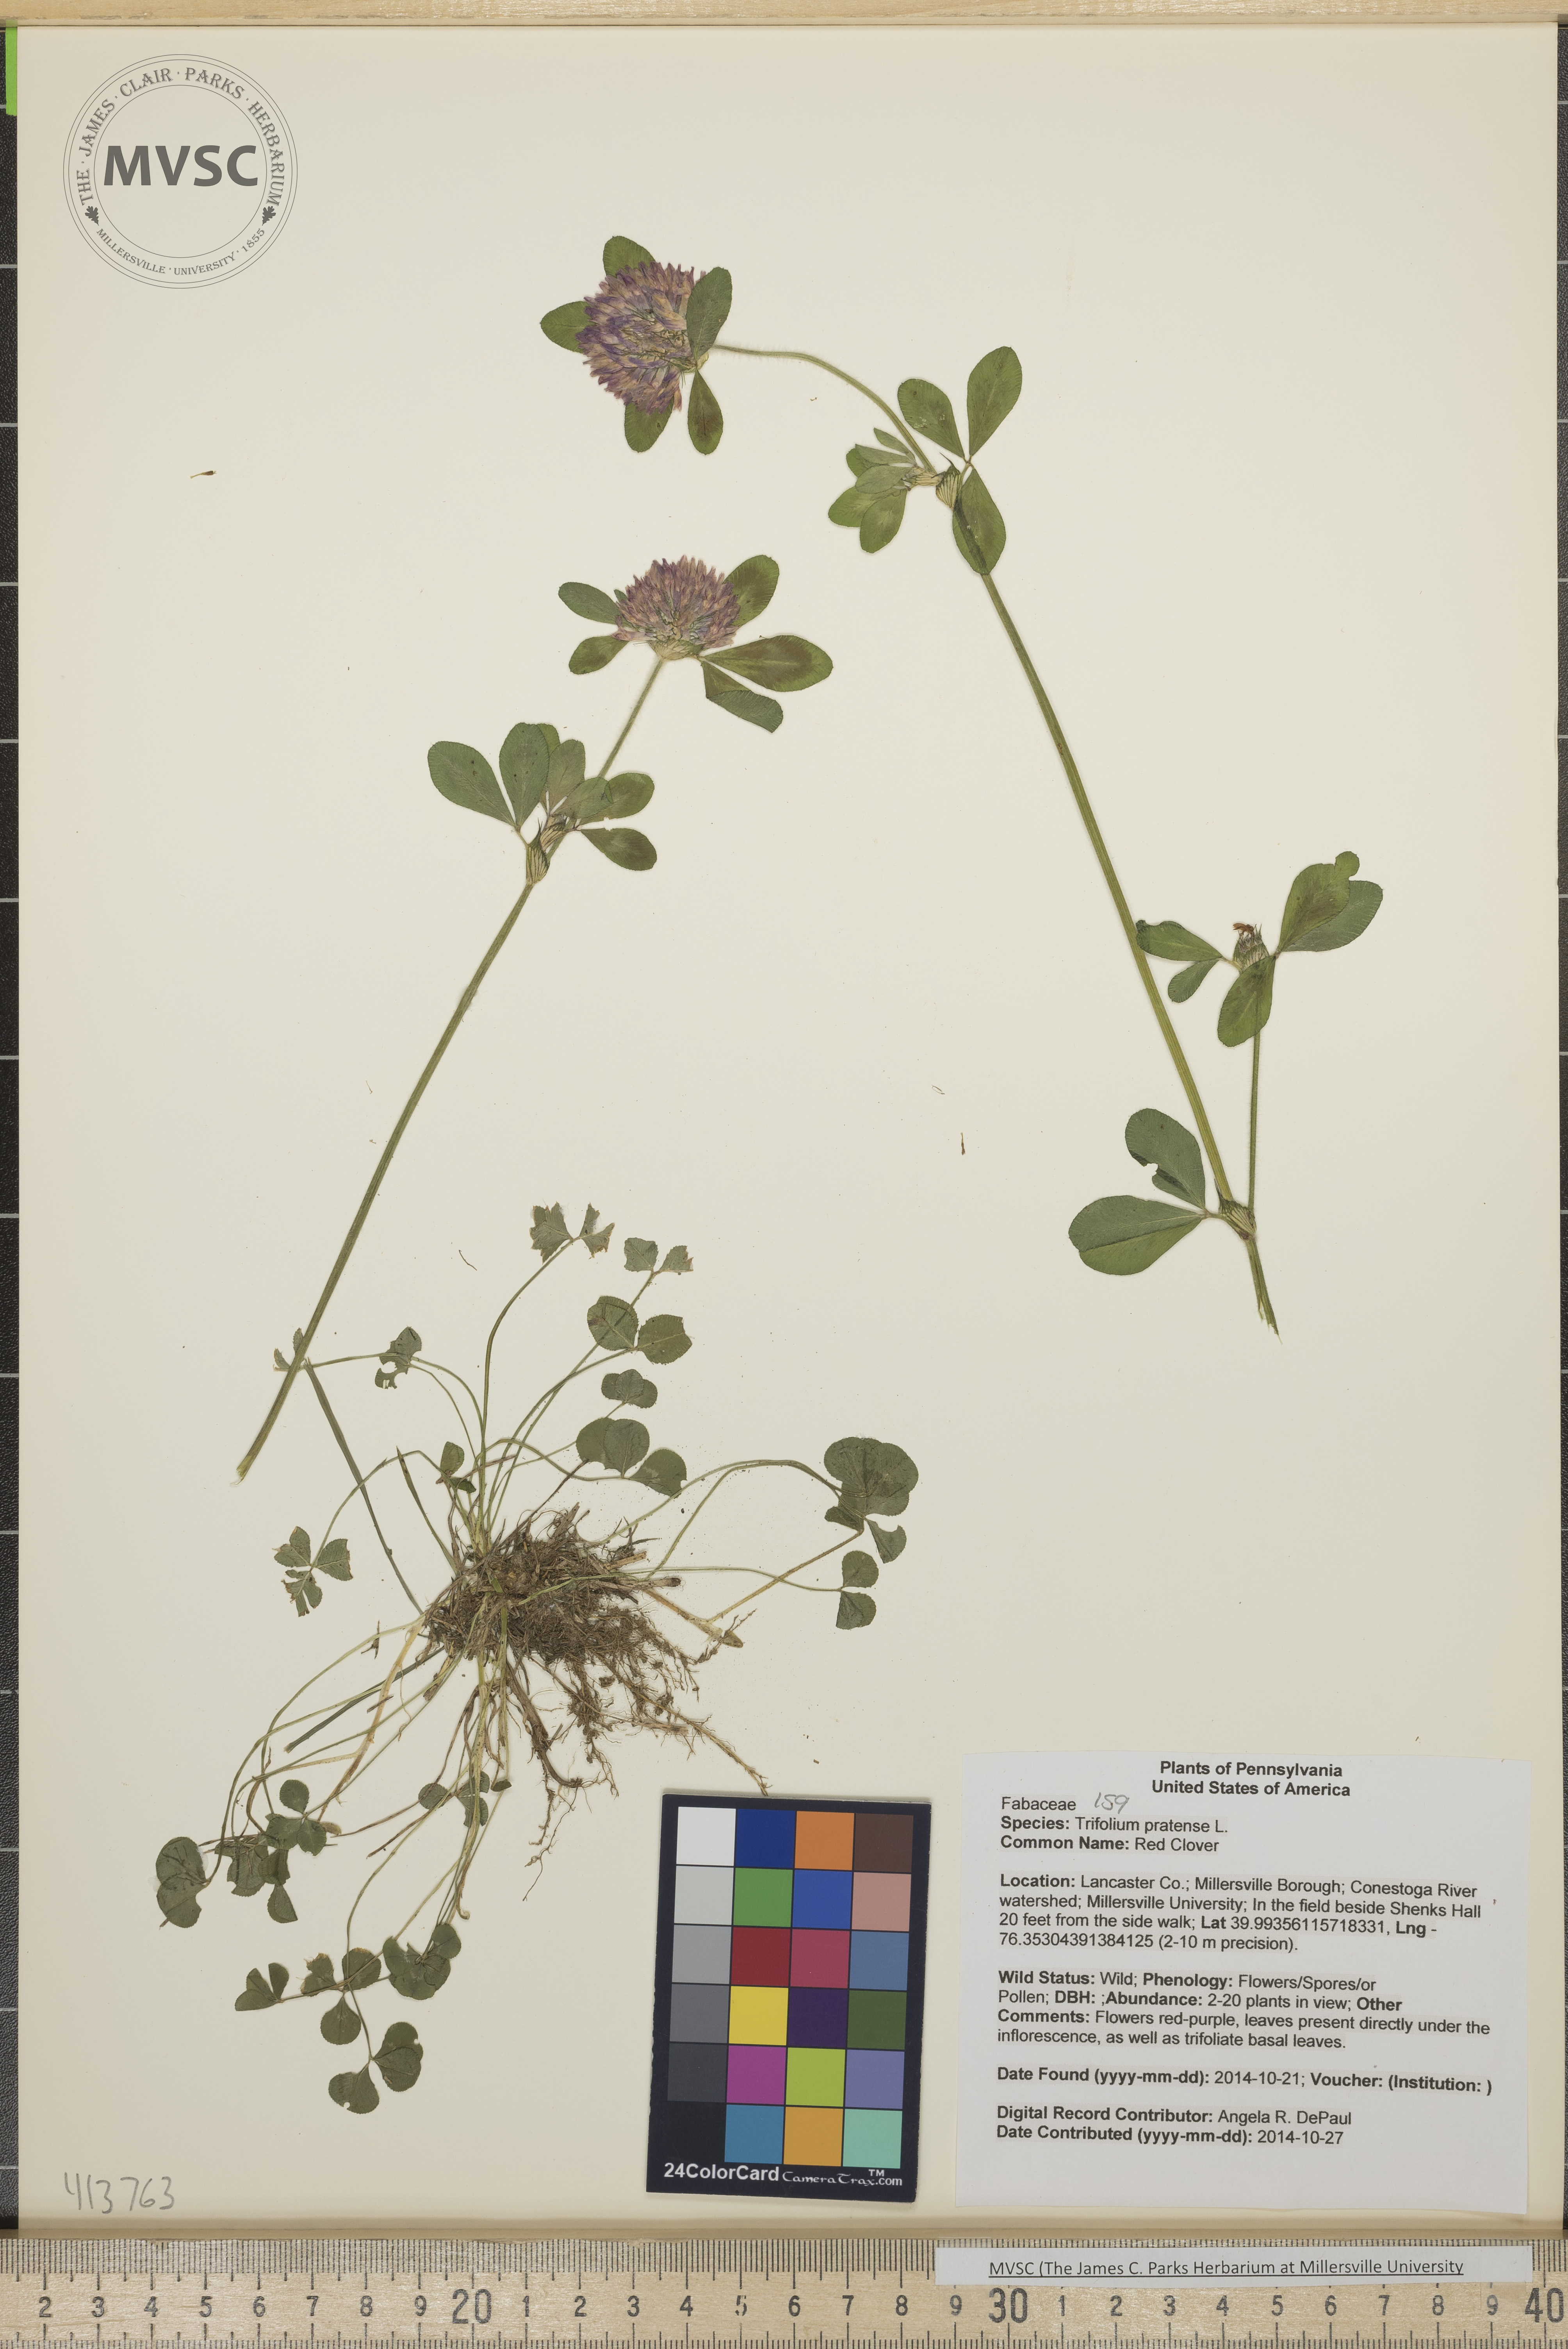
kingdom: Plantae
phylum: Tracheophyta
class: Magnoliopsida
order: Fabales
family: Fabaceae
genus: Trifolium
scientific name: Trifolium pratense
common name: Red Clover
